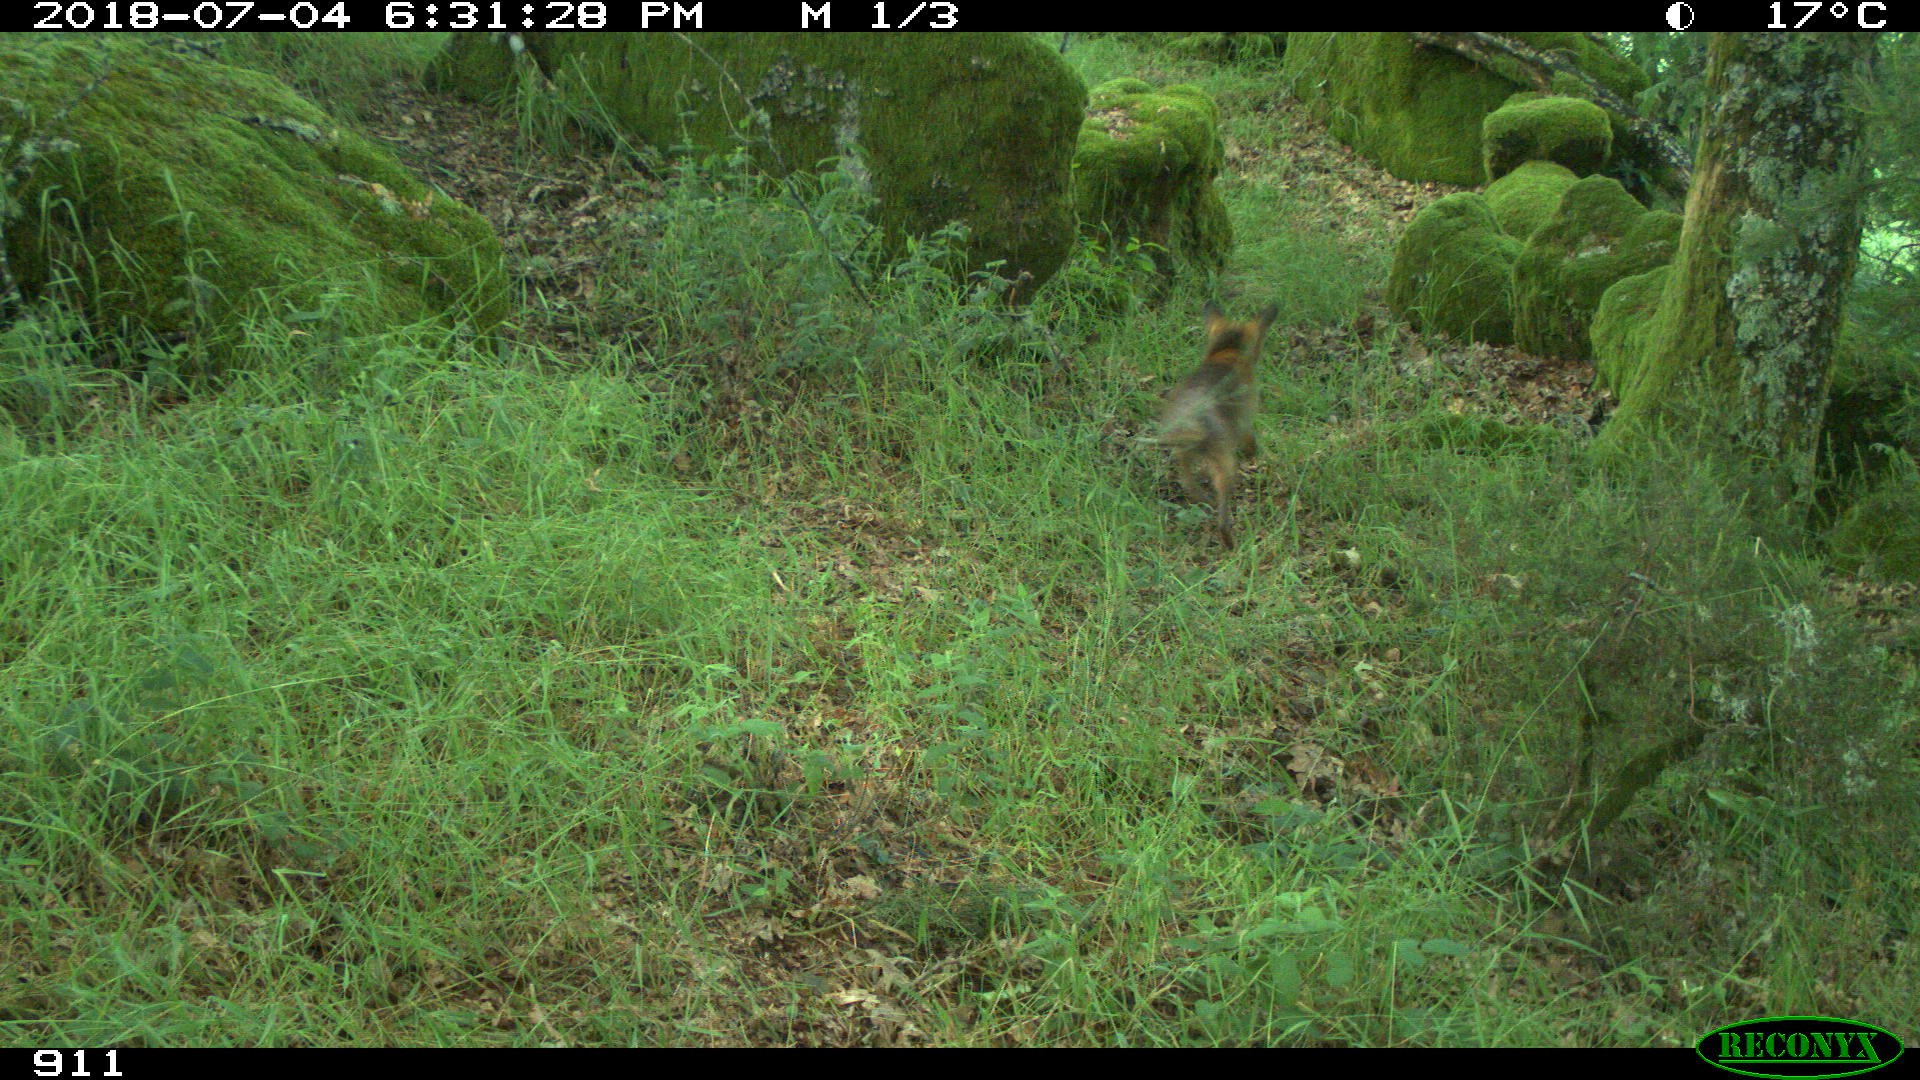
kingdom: Animalia
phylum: Chordata
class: Mammalia
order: Carnivora
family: Canidae
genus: Vulpes
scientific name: Vulpes vulpes
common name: Red fox
